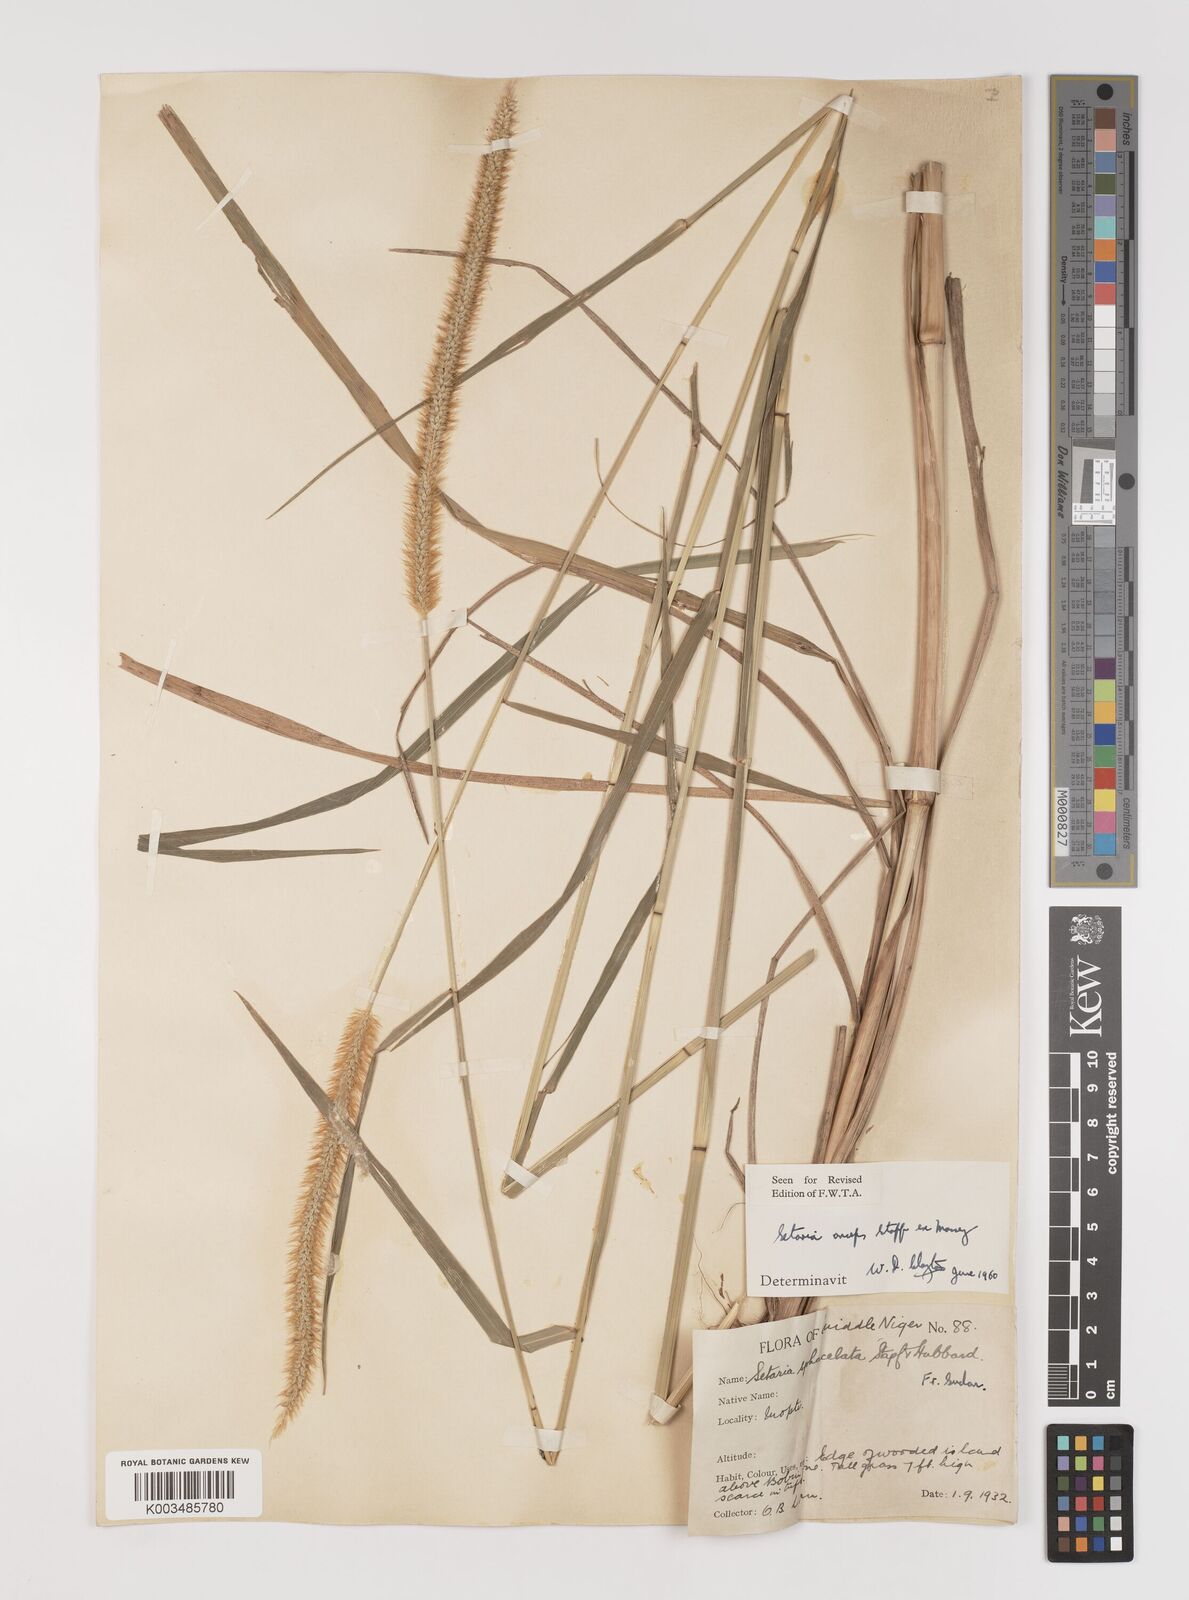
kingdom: Plantae
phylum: Tracheophyta
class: Liliopsida
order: Poales
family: Poaceae
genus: Setaria
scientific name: Setaria sphacelata
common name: African bristlegrass
